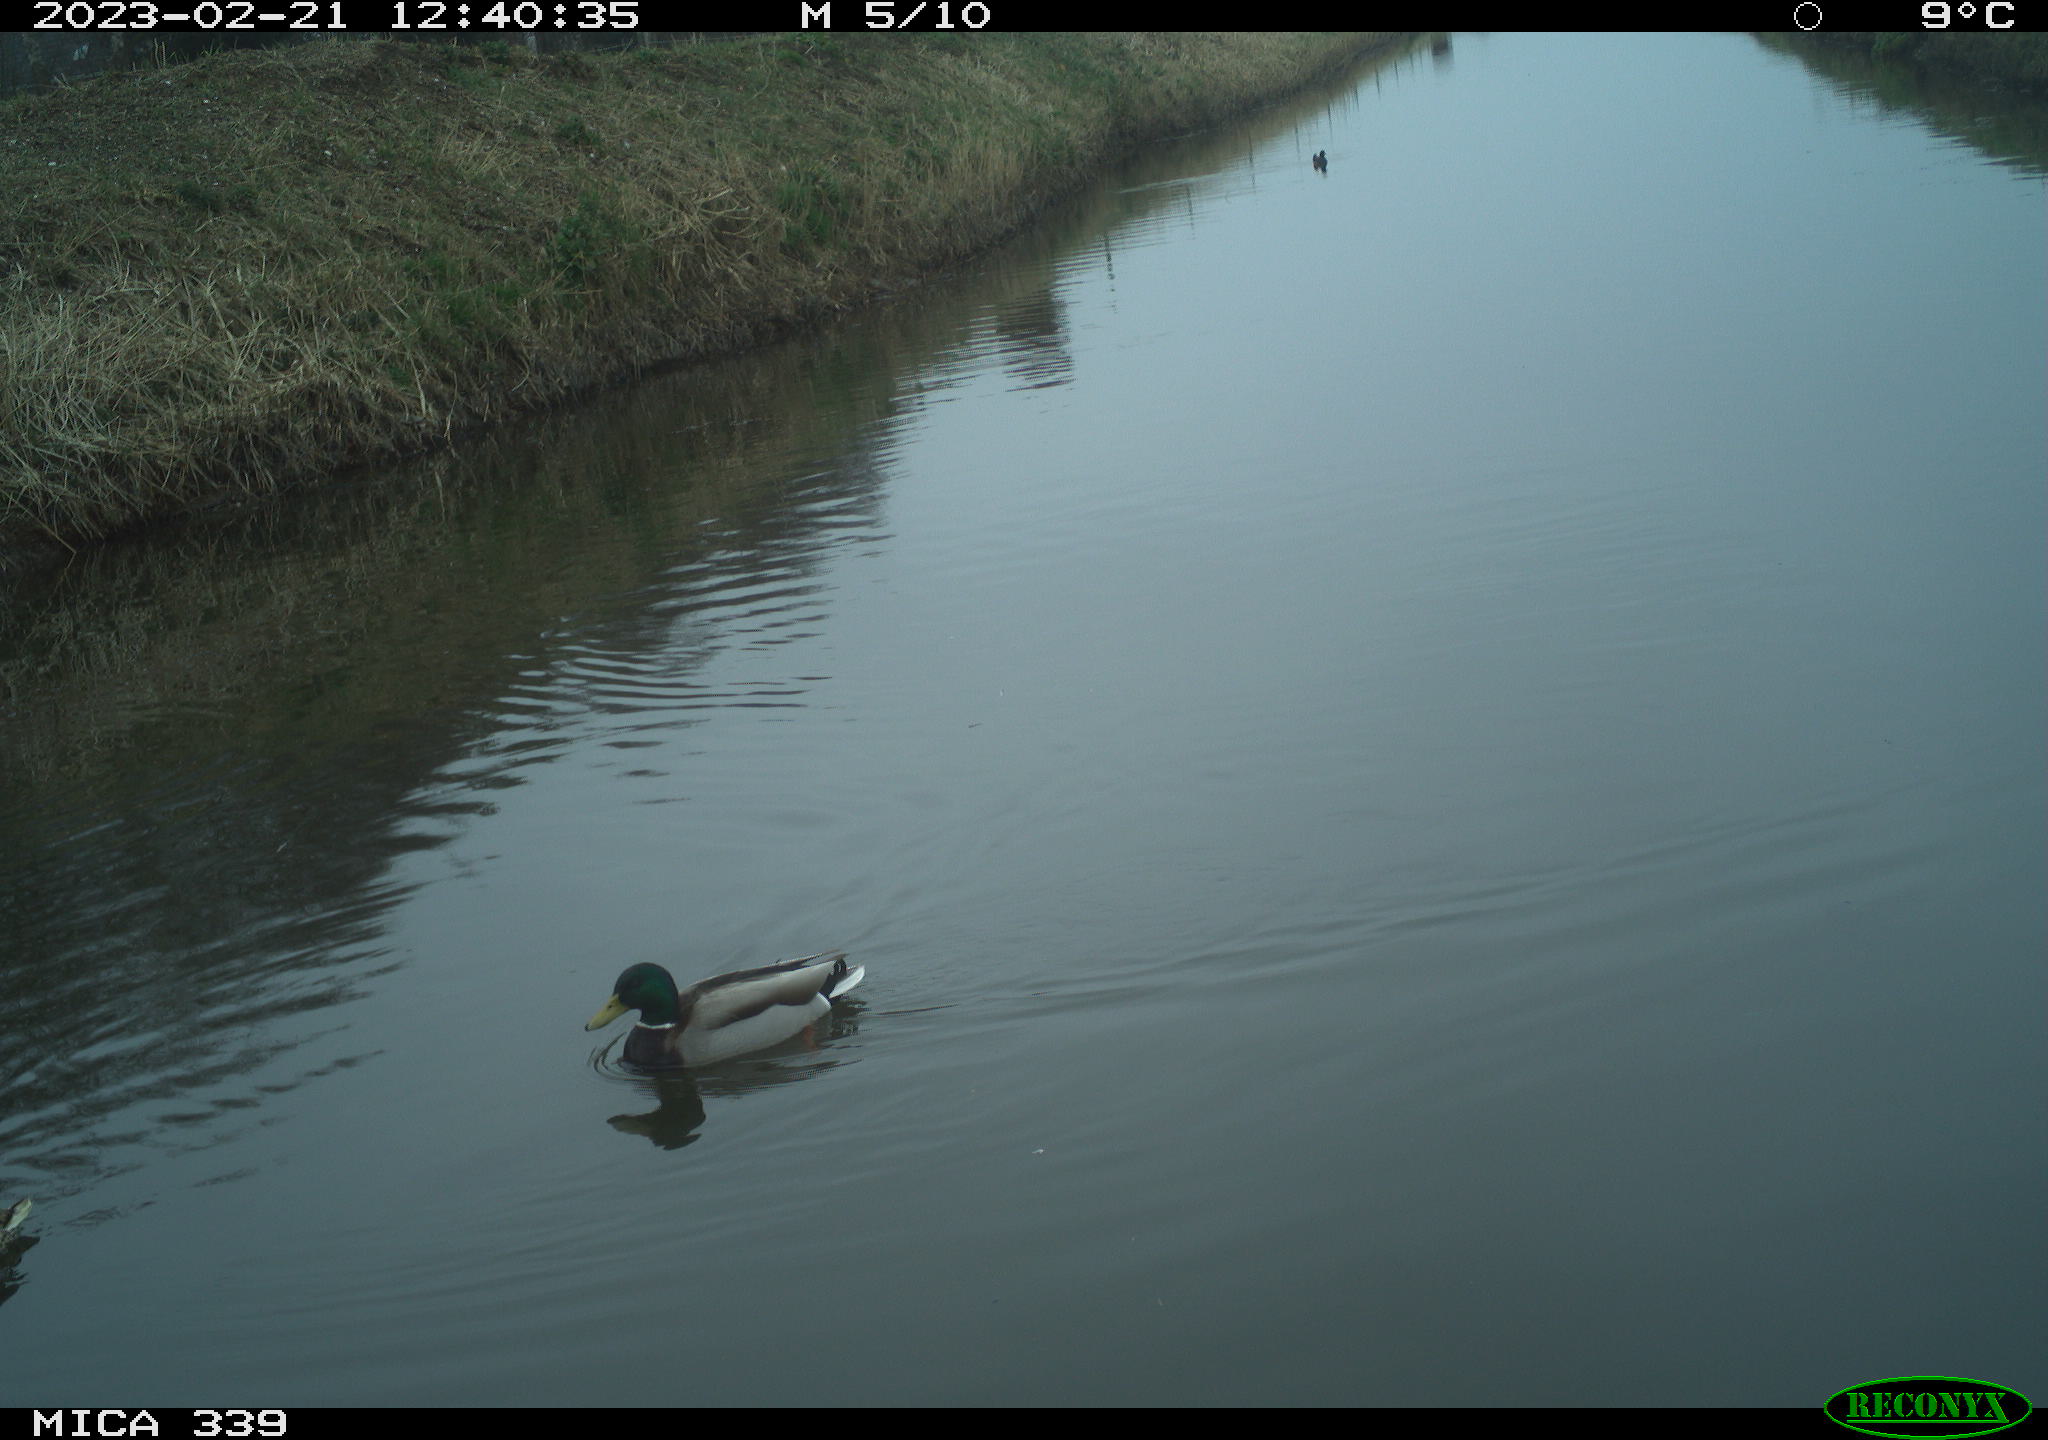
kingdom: Animalia
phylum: Chordata
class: Aves
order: Anseriformes
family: Anatidae
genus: Anas
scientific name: Anas
